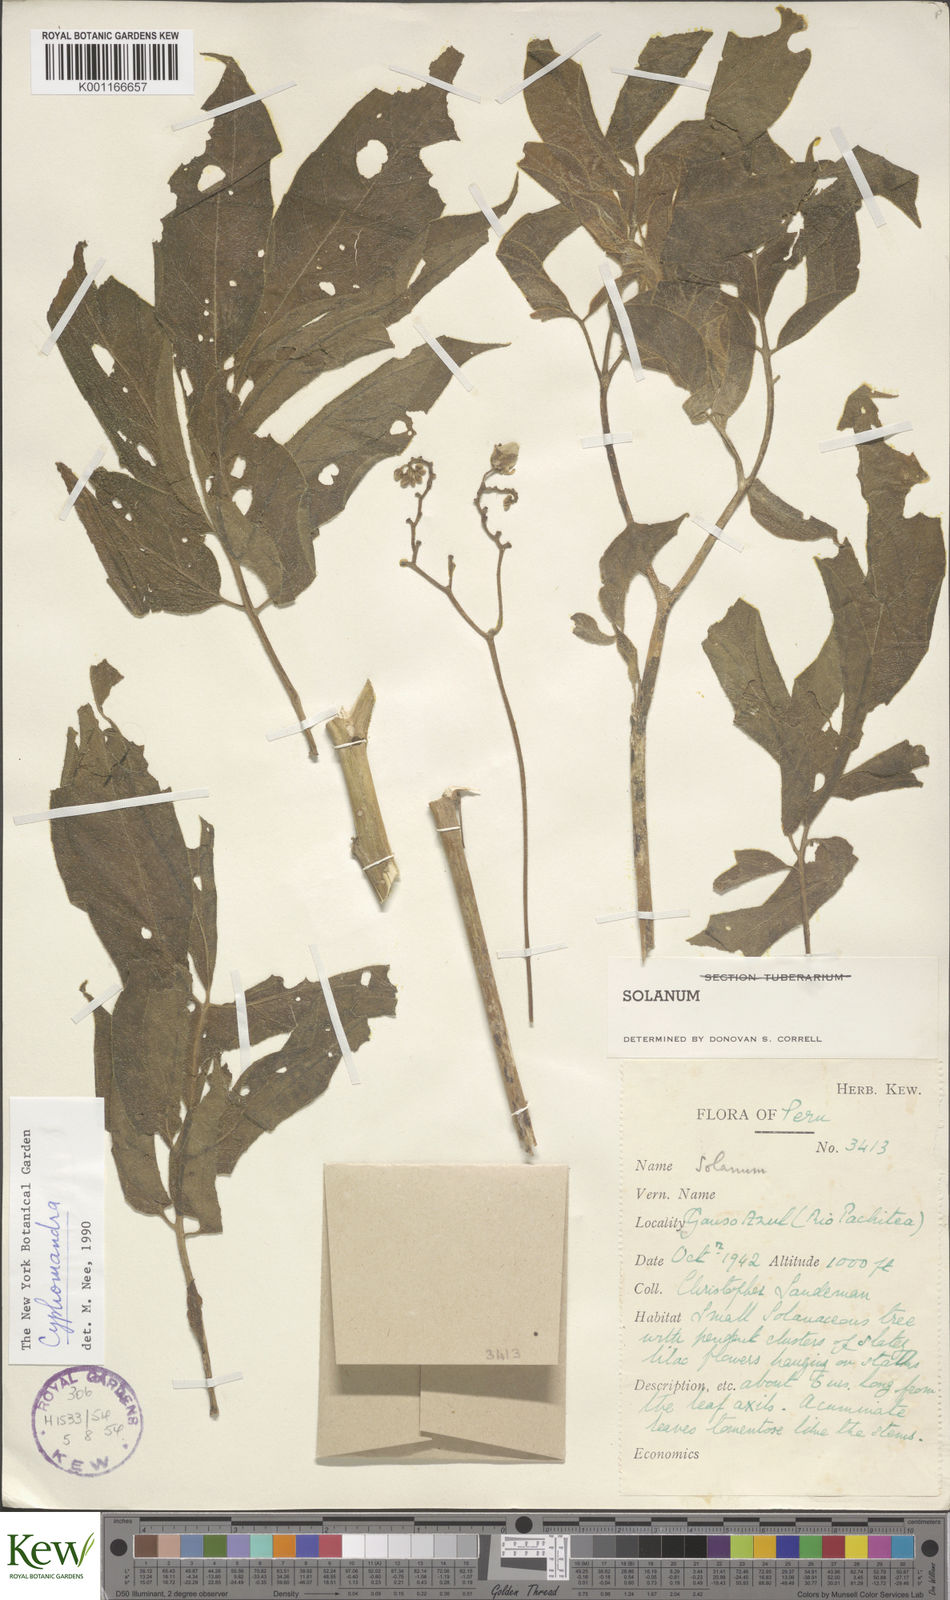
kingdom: Plantae
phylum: Tracheophyta
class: Magnoliopsida
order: Solanales
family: Solanaceae
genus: Solanum
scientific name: Solanum
